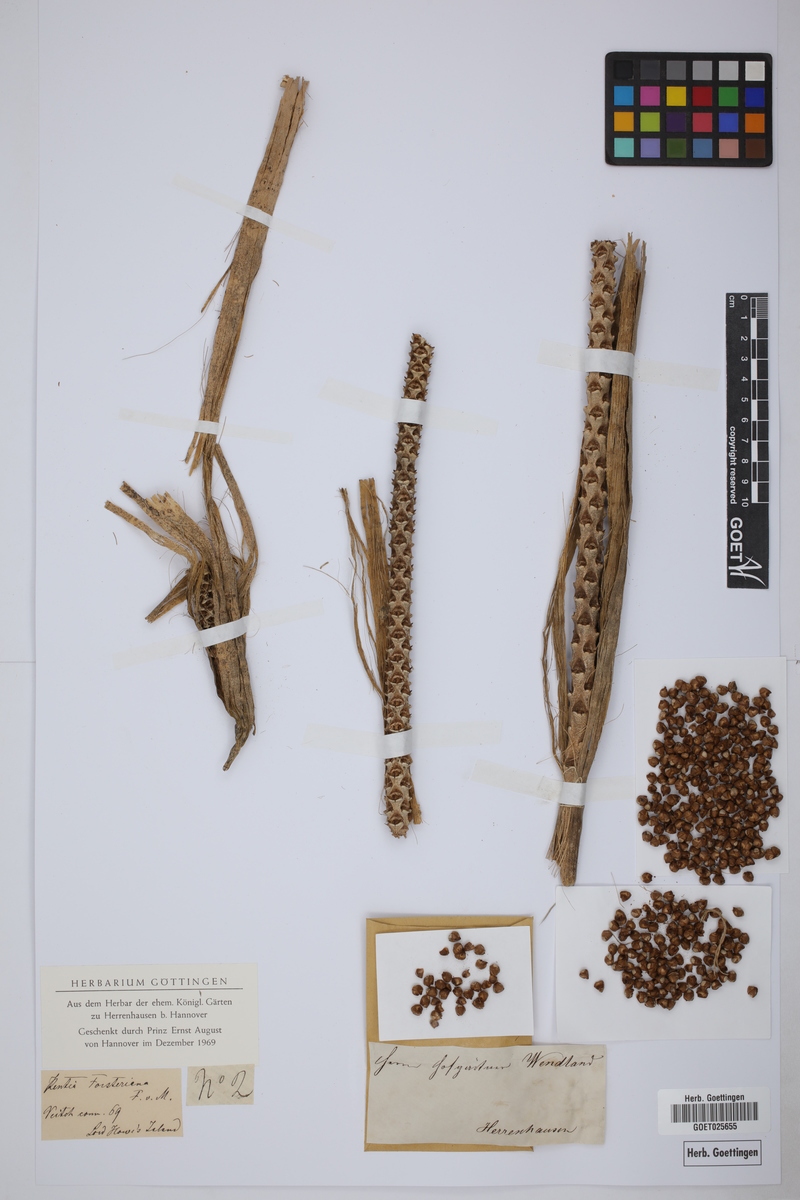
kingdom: Plantae
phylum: Tracheophyta
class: Liliopsida
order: Arecales
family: Arecaceae
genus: Howea
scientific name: Howea forsteriana
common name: Kentia palm
